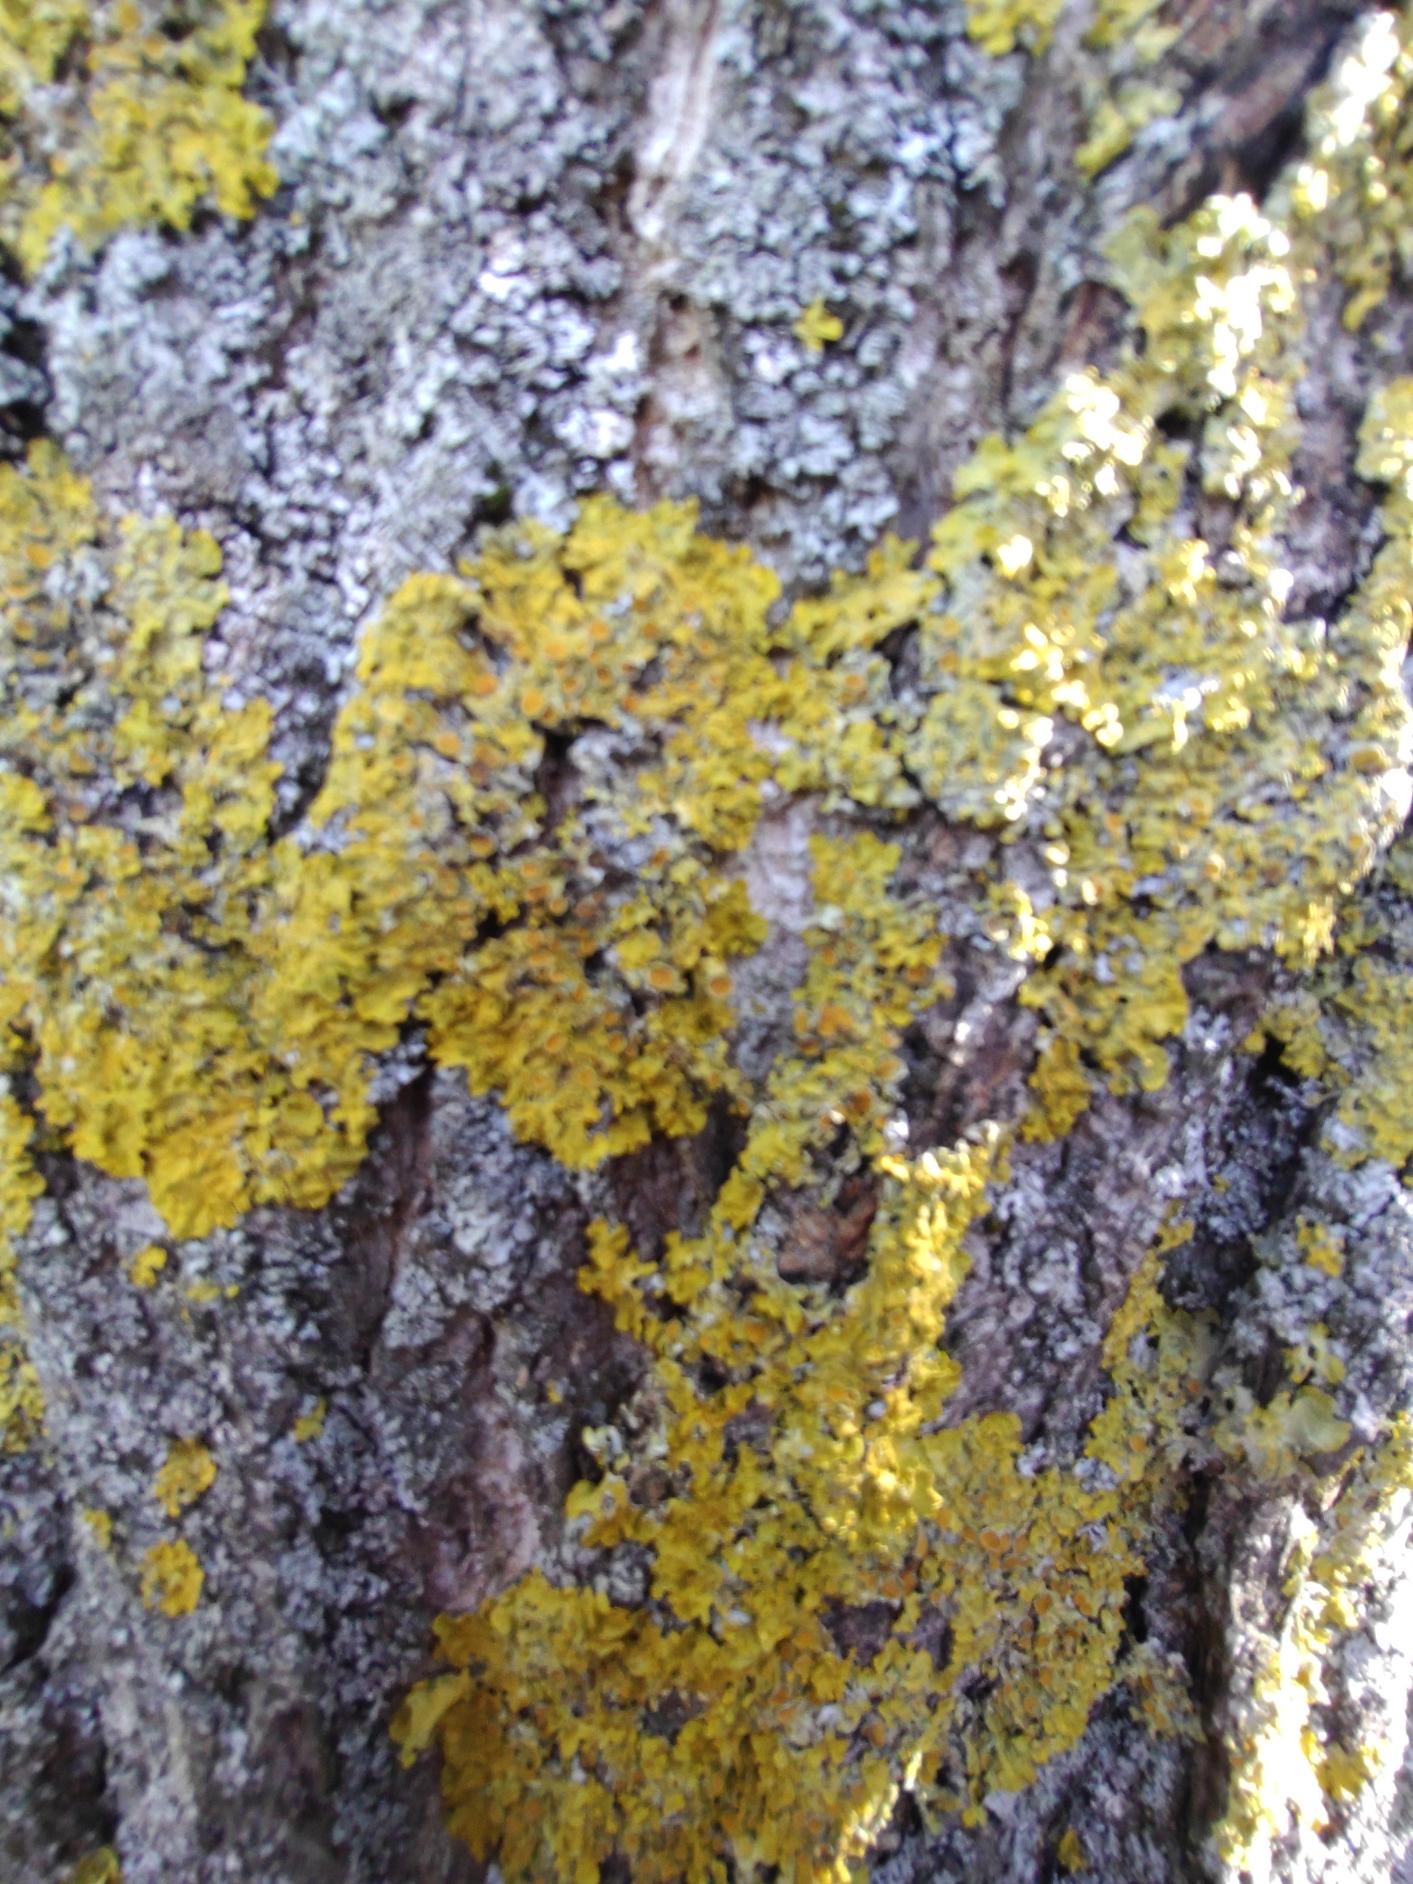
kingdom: Fungi
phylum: Ascomycota
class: Lecanoromycetes
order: Teloschistales
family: Teloschistaceae
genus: Xanthoria
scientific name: Xanthoria parietina
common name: Almindelig væggelav
